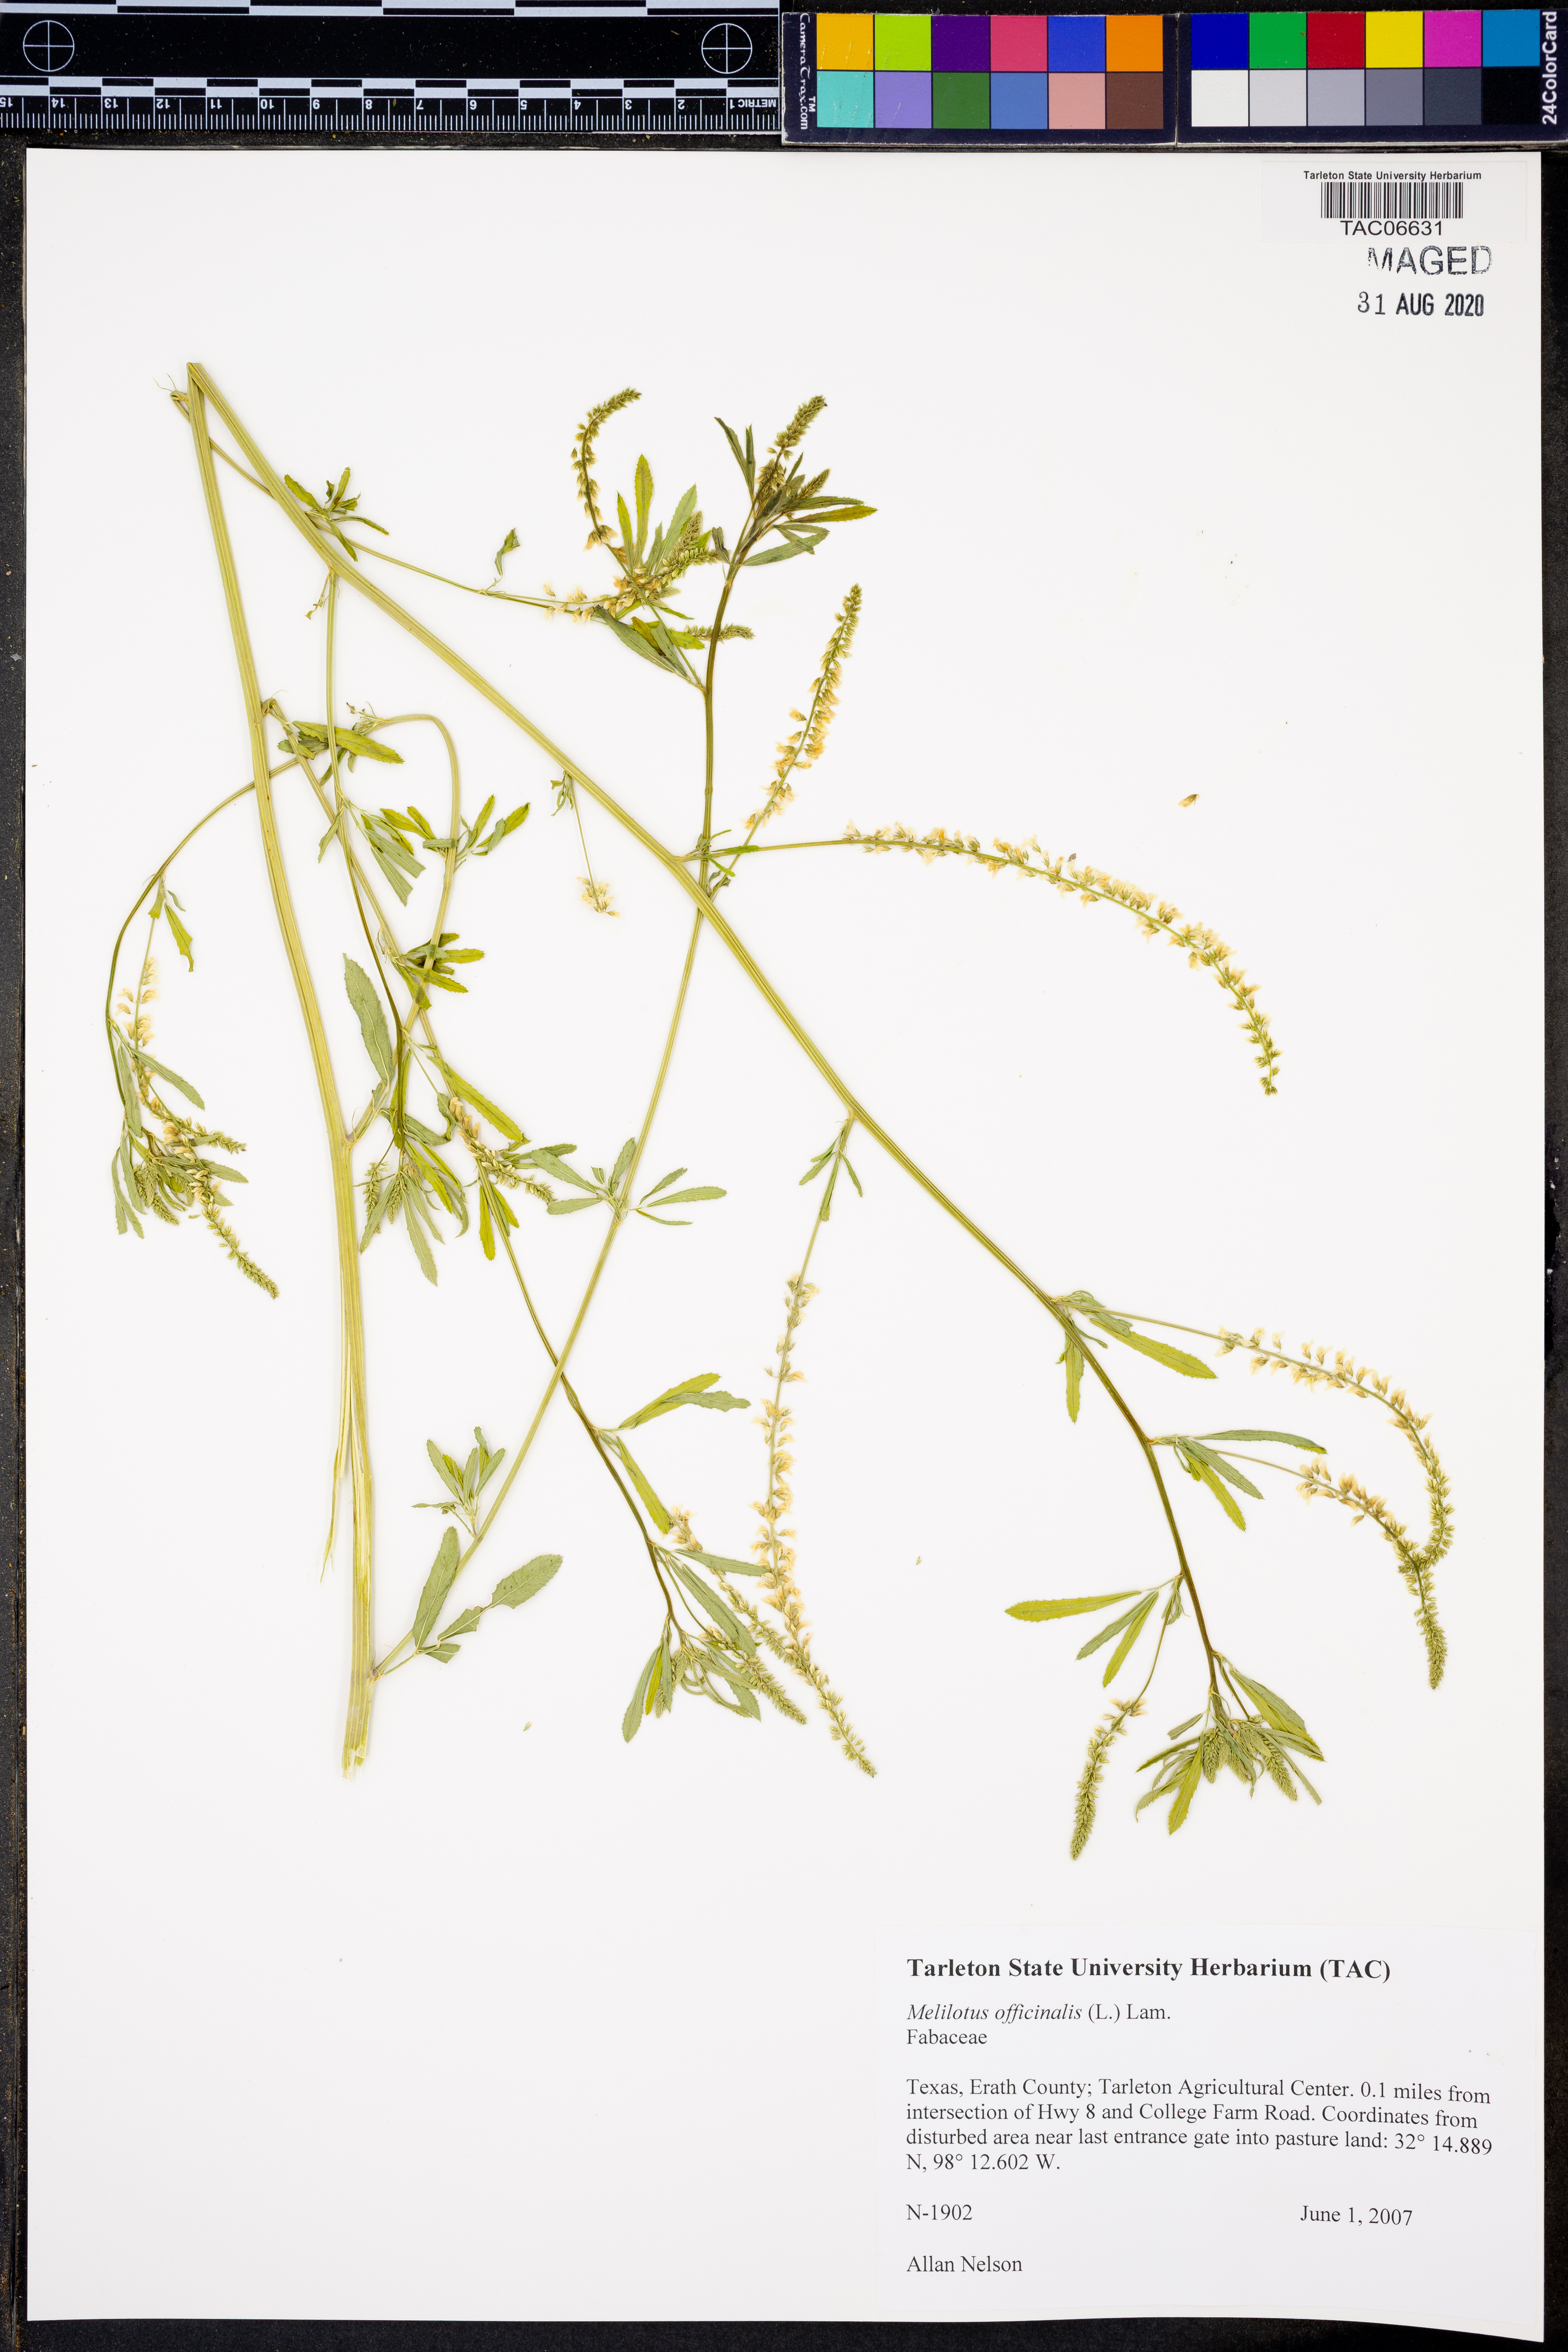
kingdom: Plantae
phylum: Tracheophyta
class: Magnoliopsida
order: Fabales
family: Fabaceae
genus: Melilotus
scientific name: Melilotus officinalis
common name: Sweetclover
